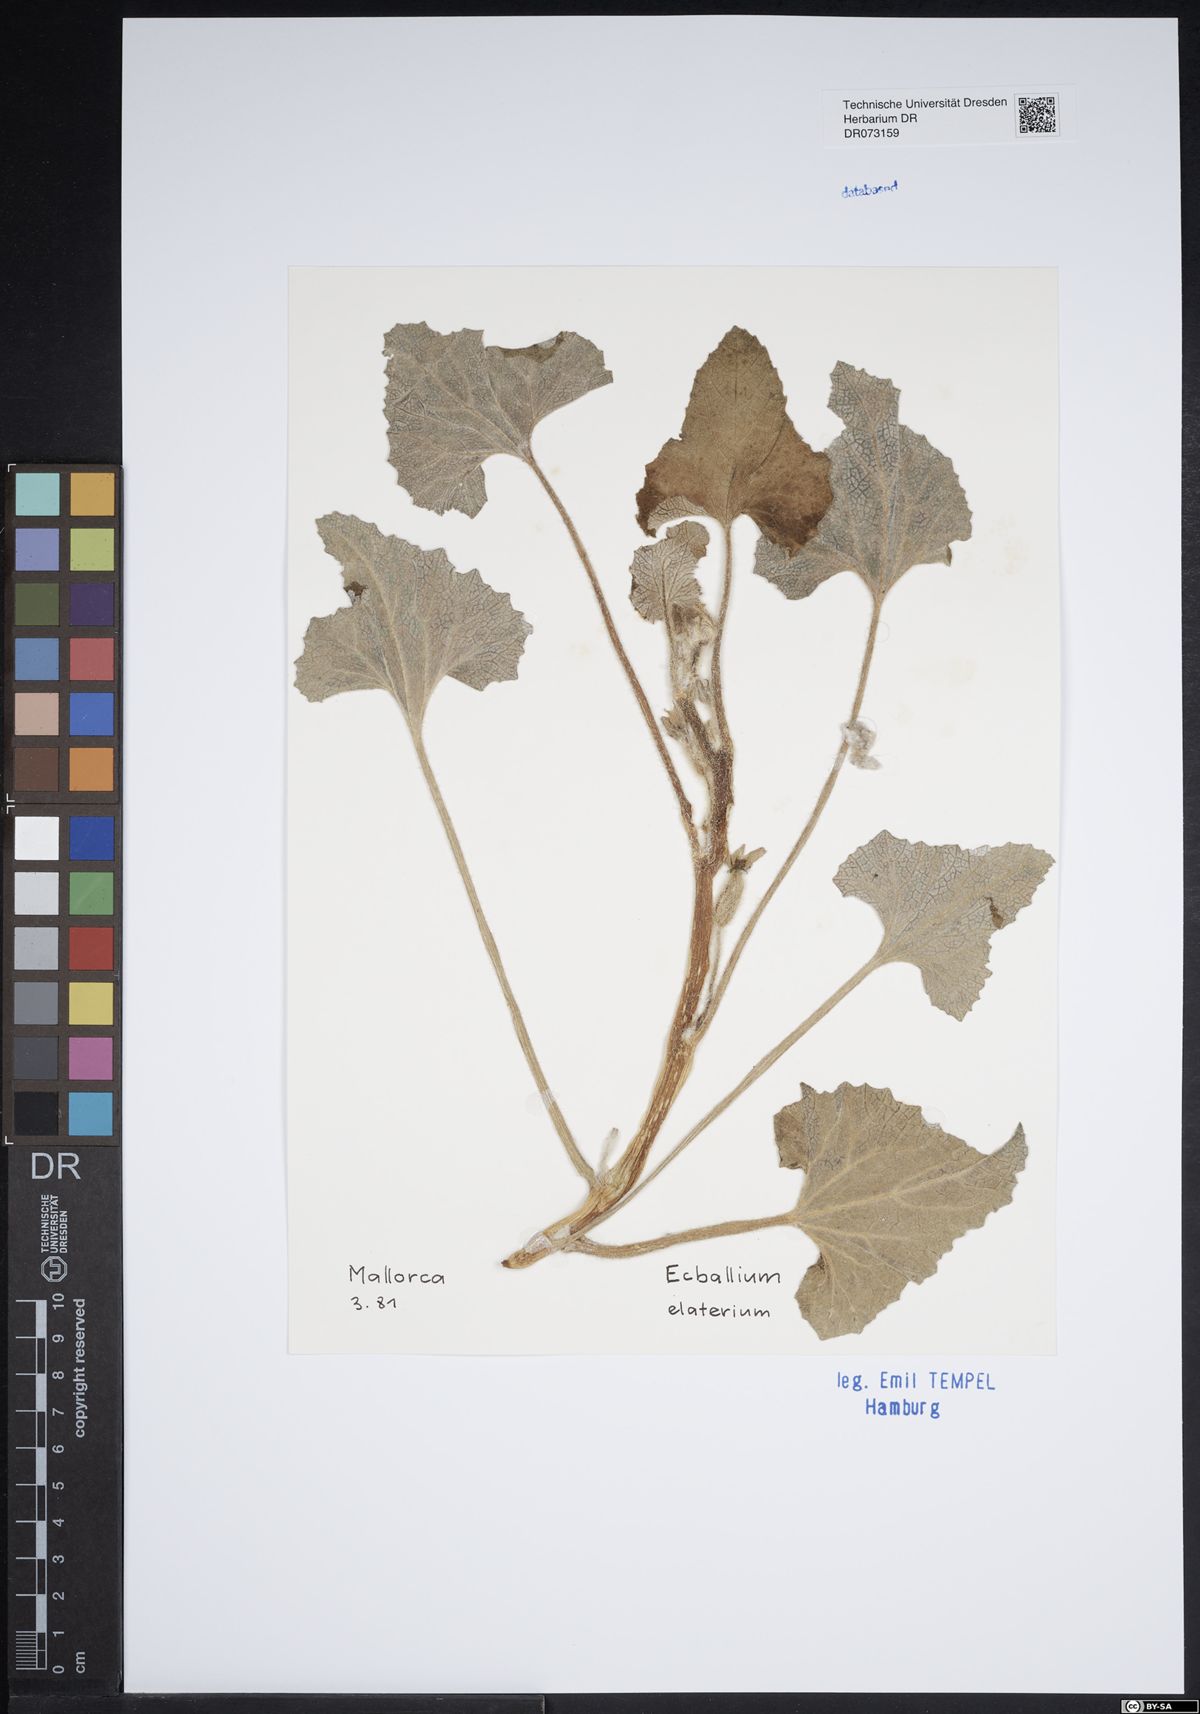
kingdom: Plantae
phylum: Tracheophyta
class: Magnoliopsida
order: Cucurbitales
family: Cucurbitaceae
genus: Ecballium
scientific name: Ecballium elaterium
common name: Squirting cucumber
